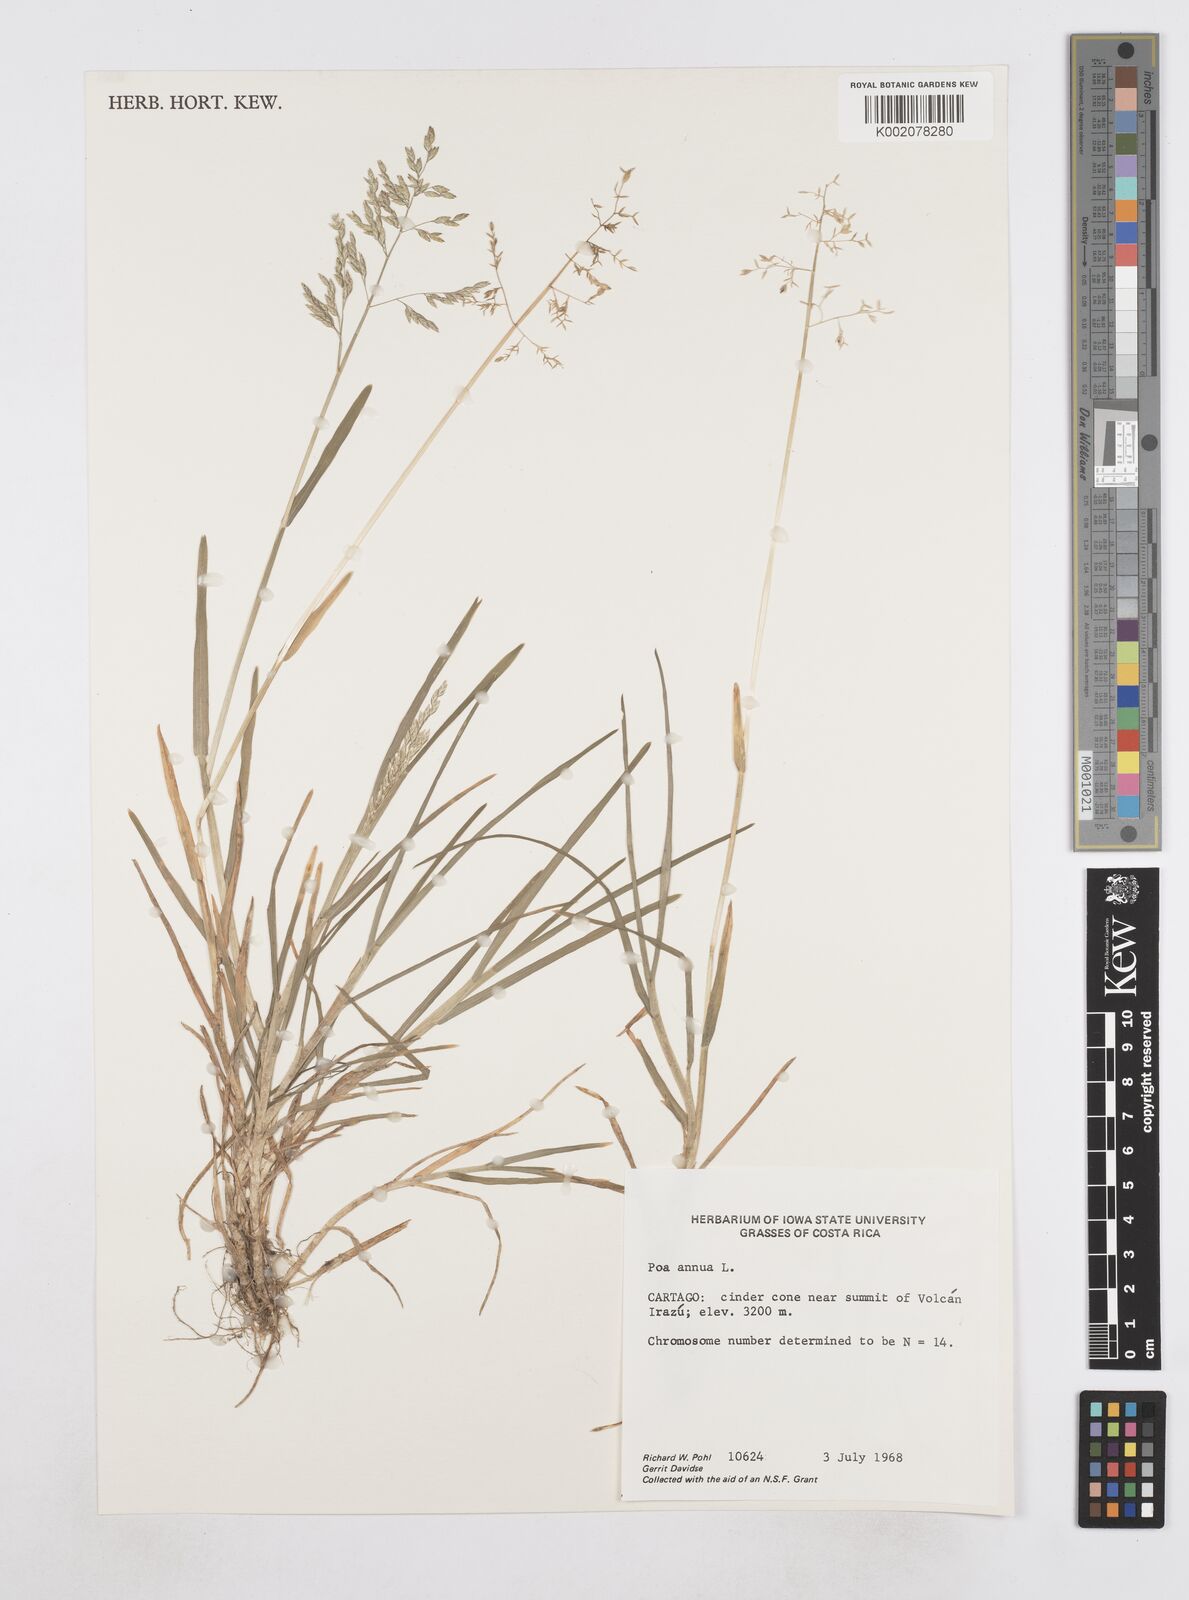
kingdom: Plantae
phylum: Tracheophyta
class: Liliopsida
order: Poales
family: Poaceae
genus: Poa
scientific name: Poa annua
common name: Annual bluegrass
